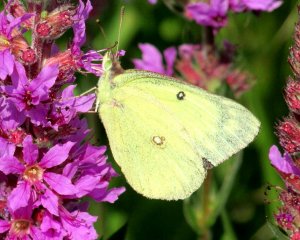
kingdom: Animalia
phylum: Arthropoda
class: Insecta
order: Lepidoptera
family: Pieridae
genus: Colias
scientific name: Colias philodice
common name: Clouded Sulphur
